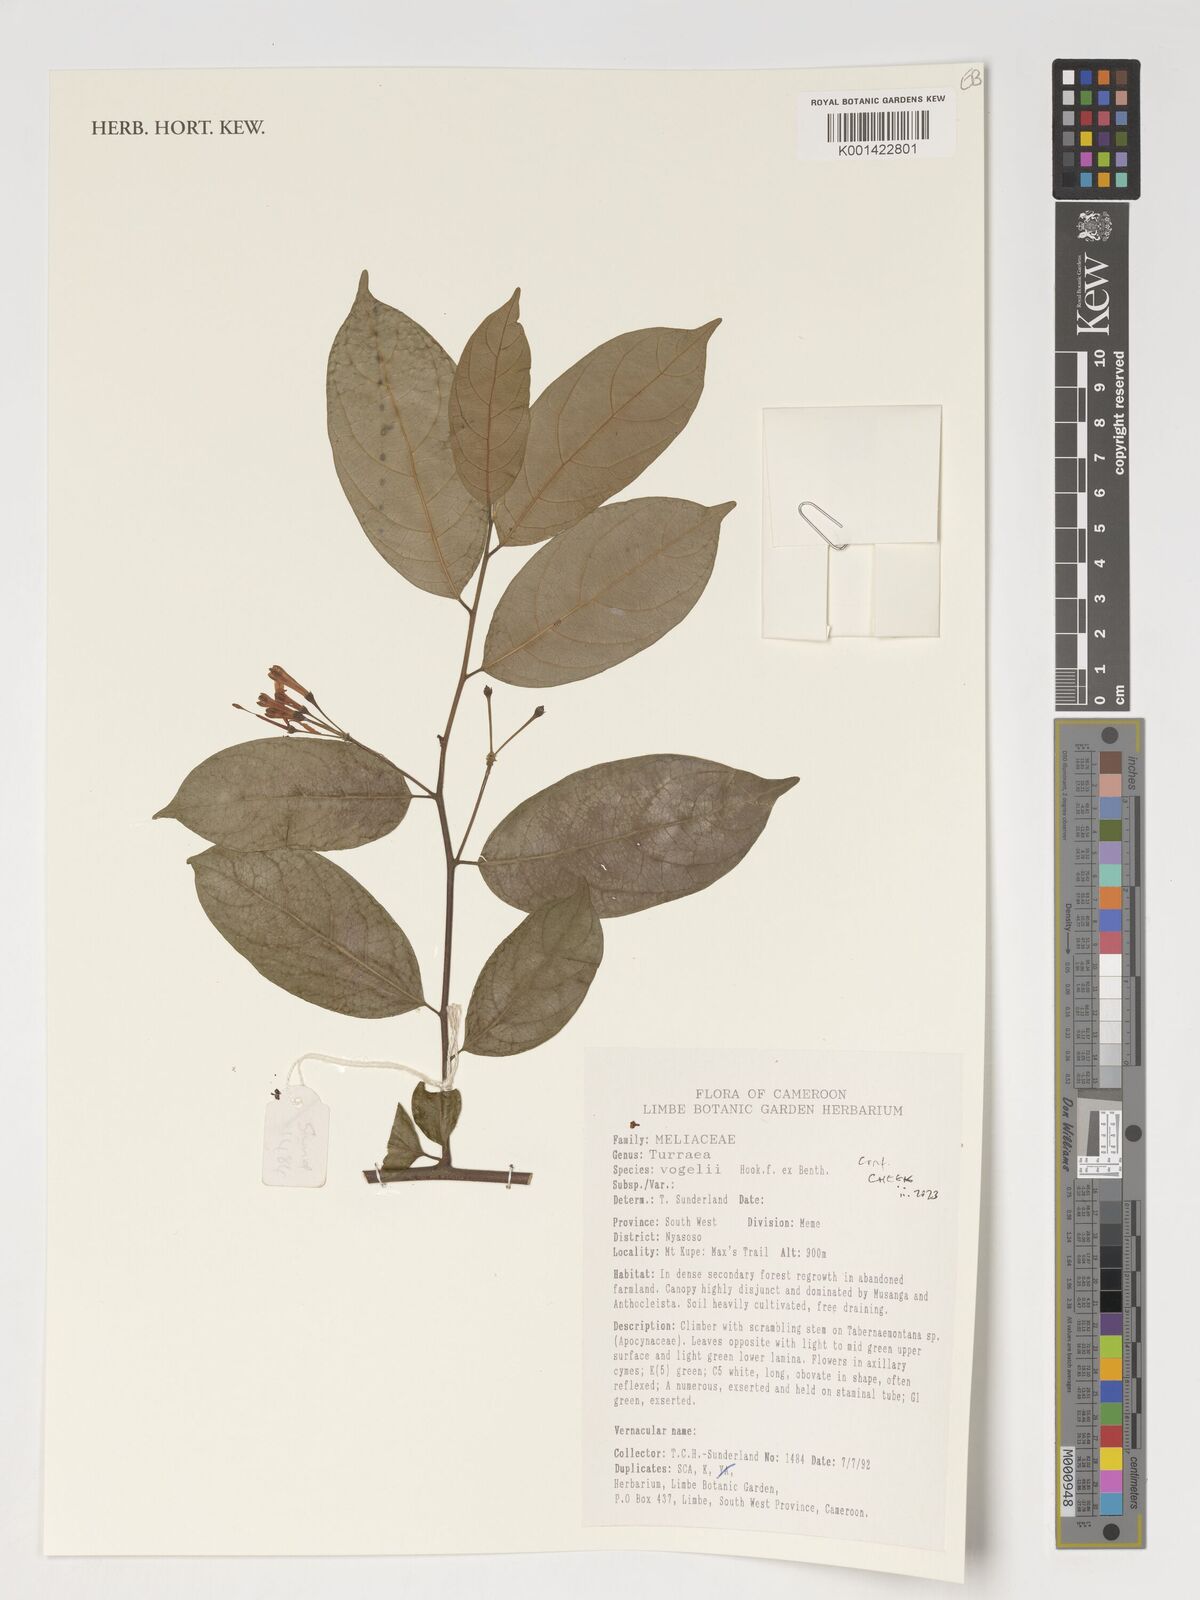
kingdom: Plantae
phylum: Tracheophyta
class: Magnoliopsida
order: Sapindales
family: Meliaceae
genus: Turraea
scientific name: Turraea vogelii
